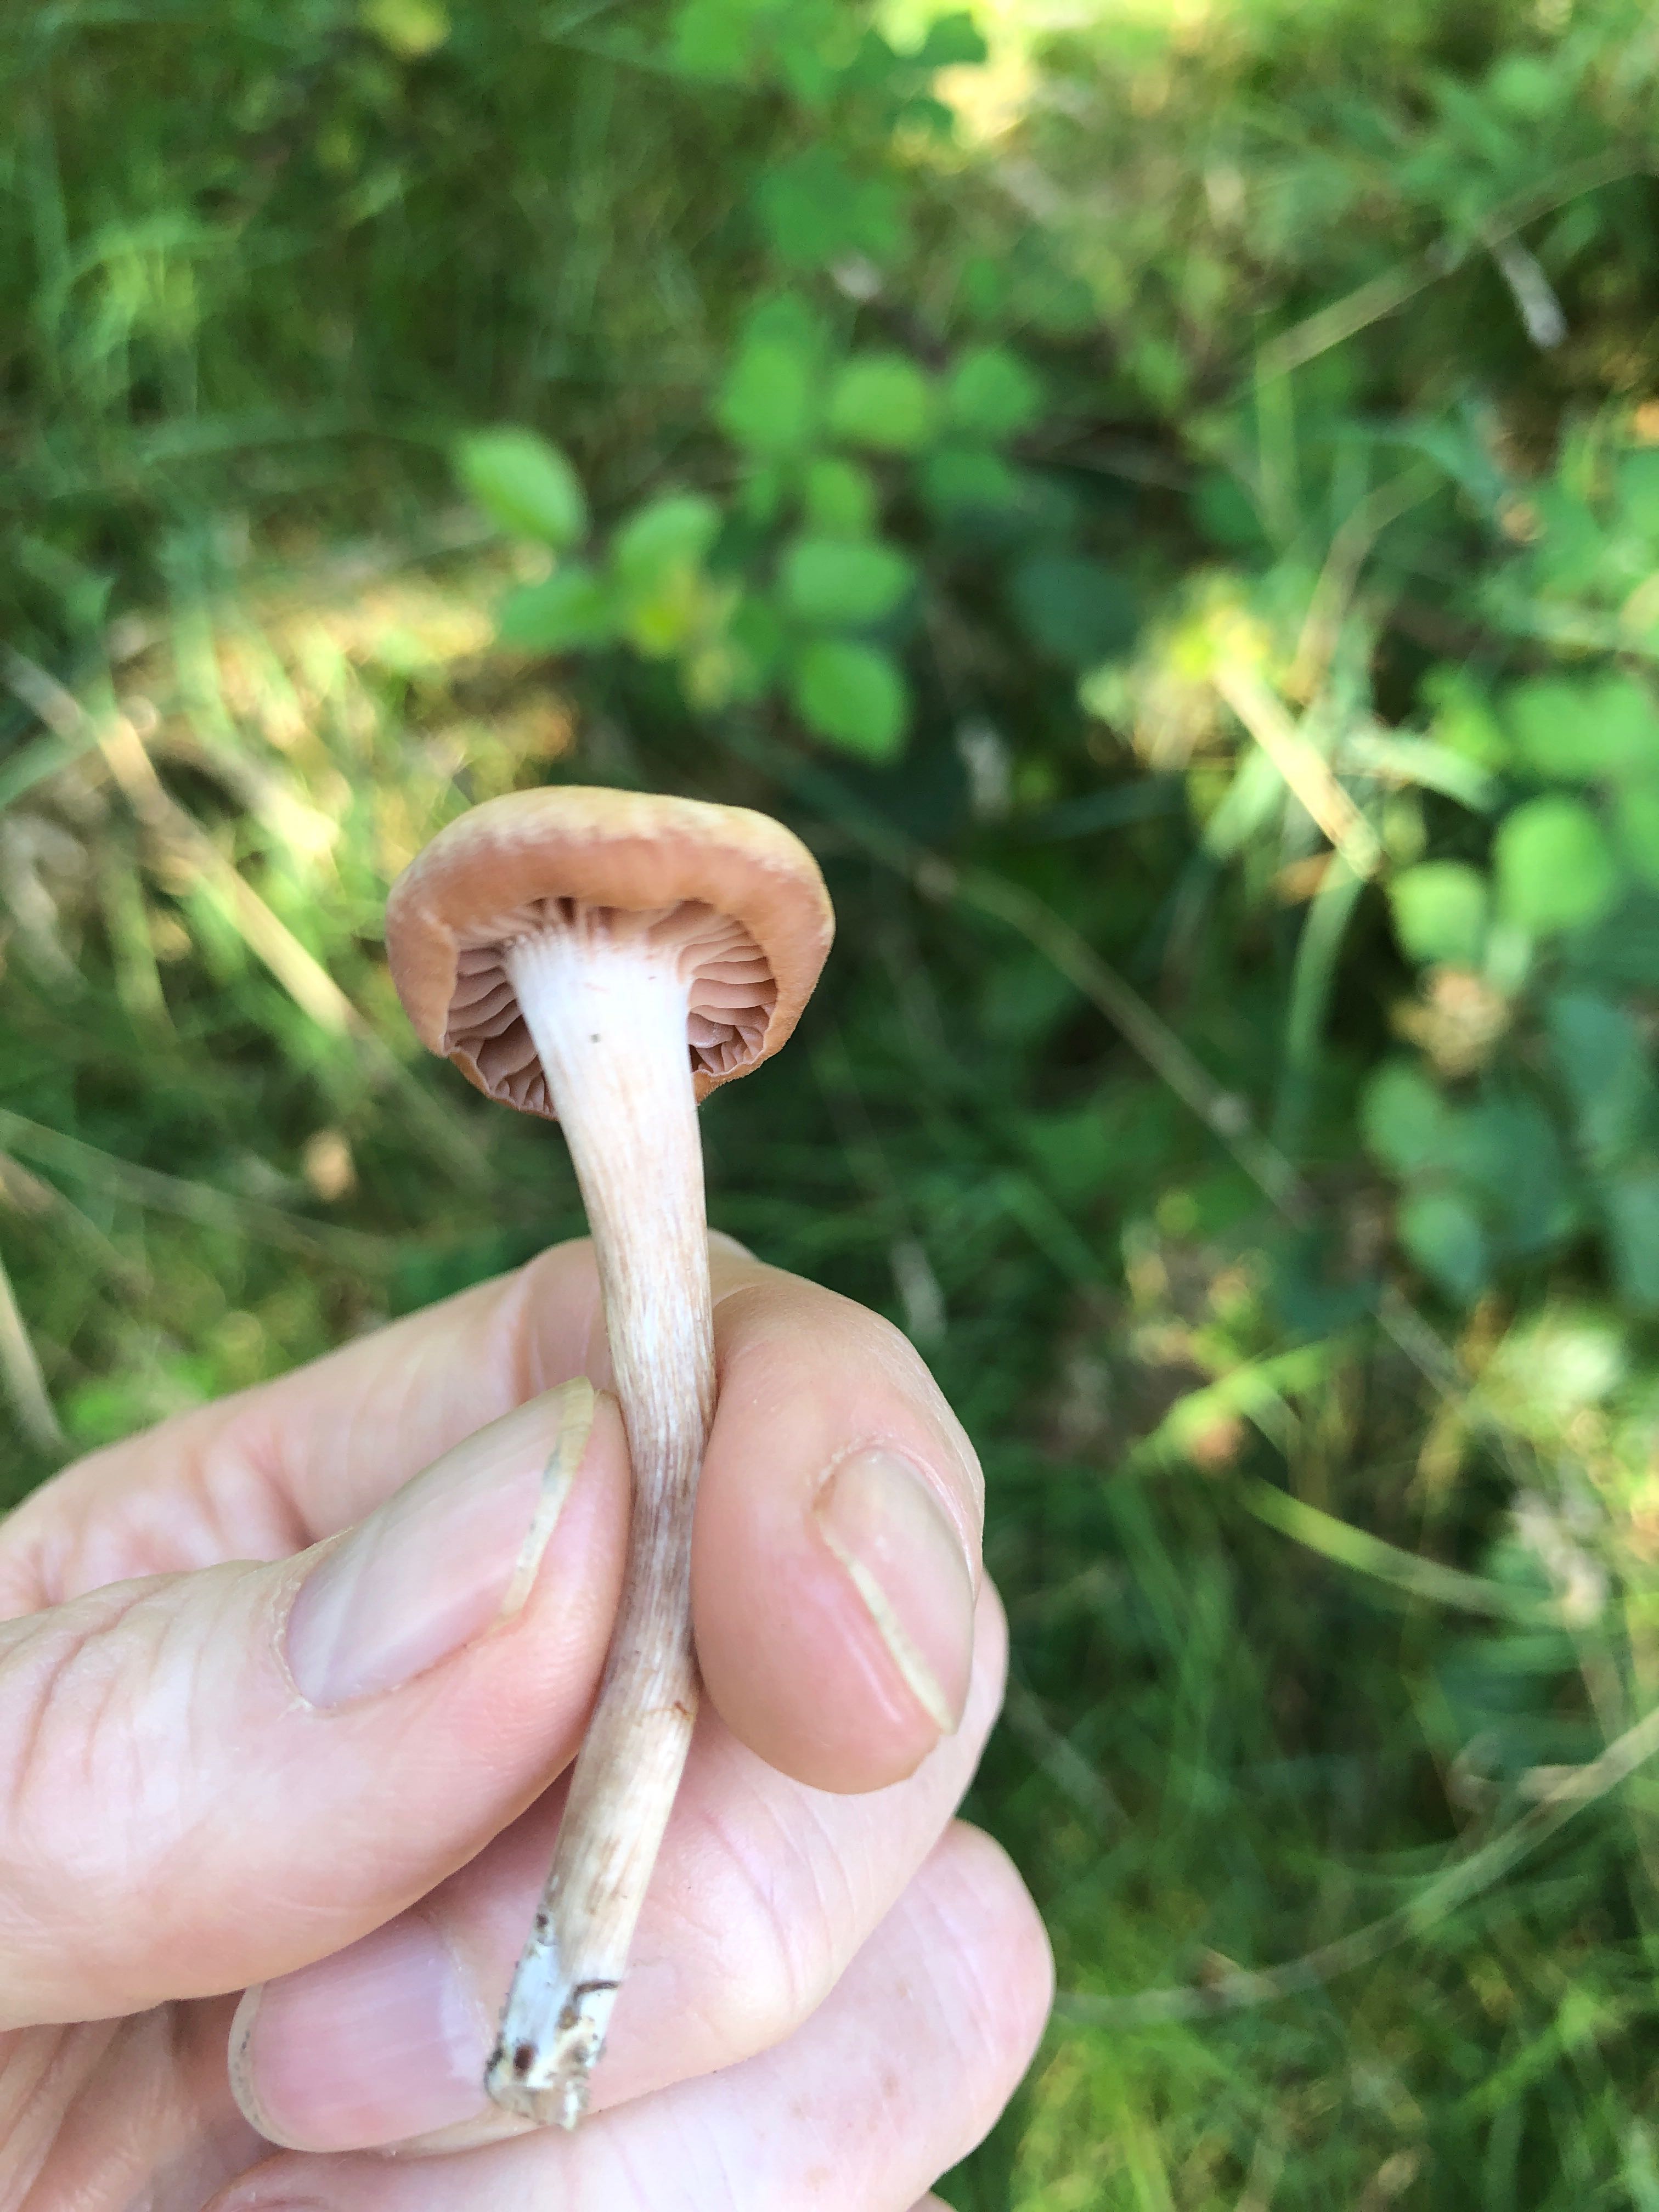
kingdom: Fungi
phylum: Basidiomycota
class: Agaricomycetes
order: Agaricales
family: Hydnangiaceae
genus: Laccaria
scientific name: Laccaria proxima
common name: stor ametysthat
